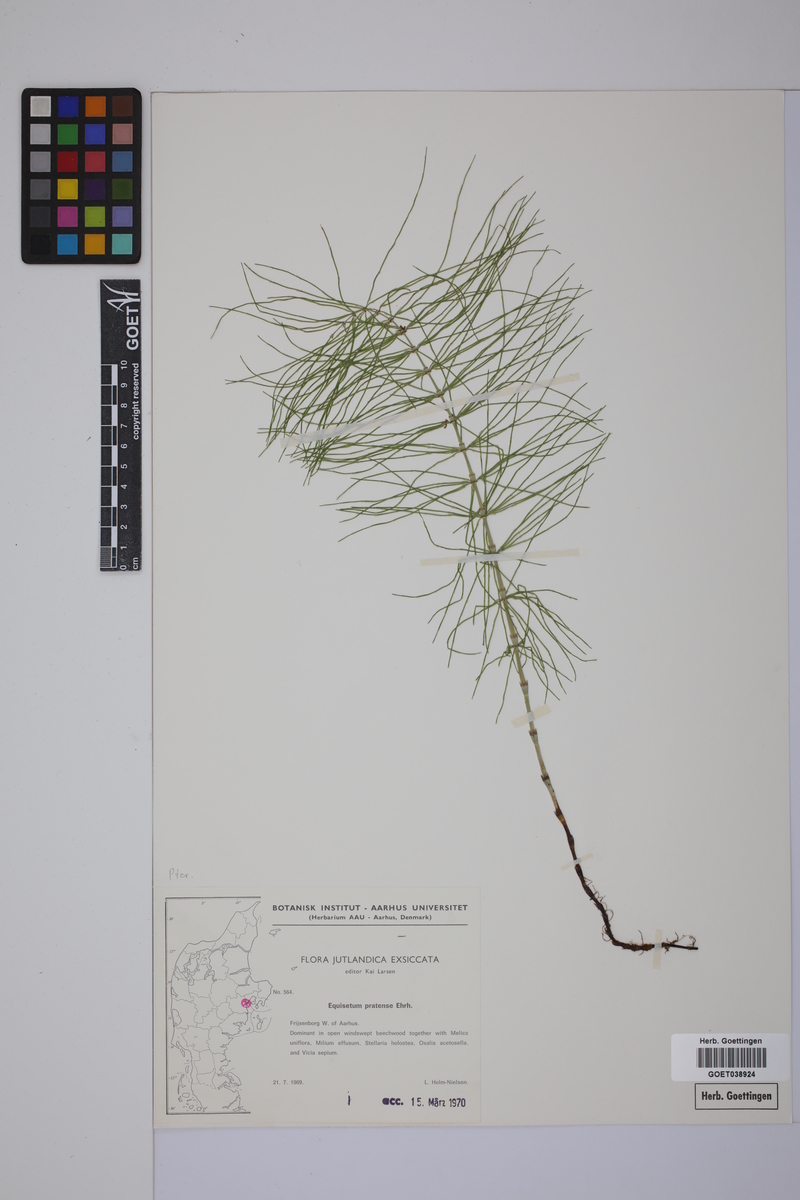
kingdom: Plantae
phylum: Tracheophyta
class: Polypodiopsida
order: Equisetales
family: Equisetaceae
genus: Equisetum
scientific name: Equisetum pratense
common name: Meadow horsetail
